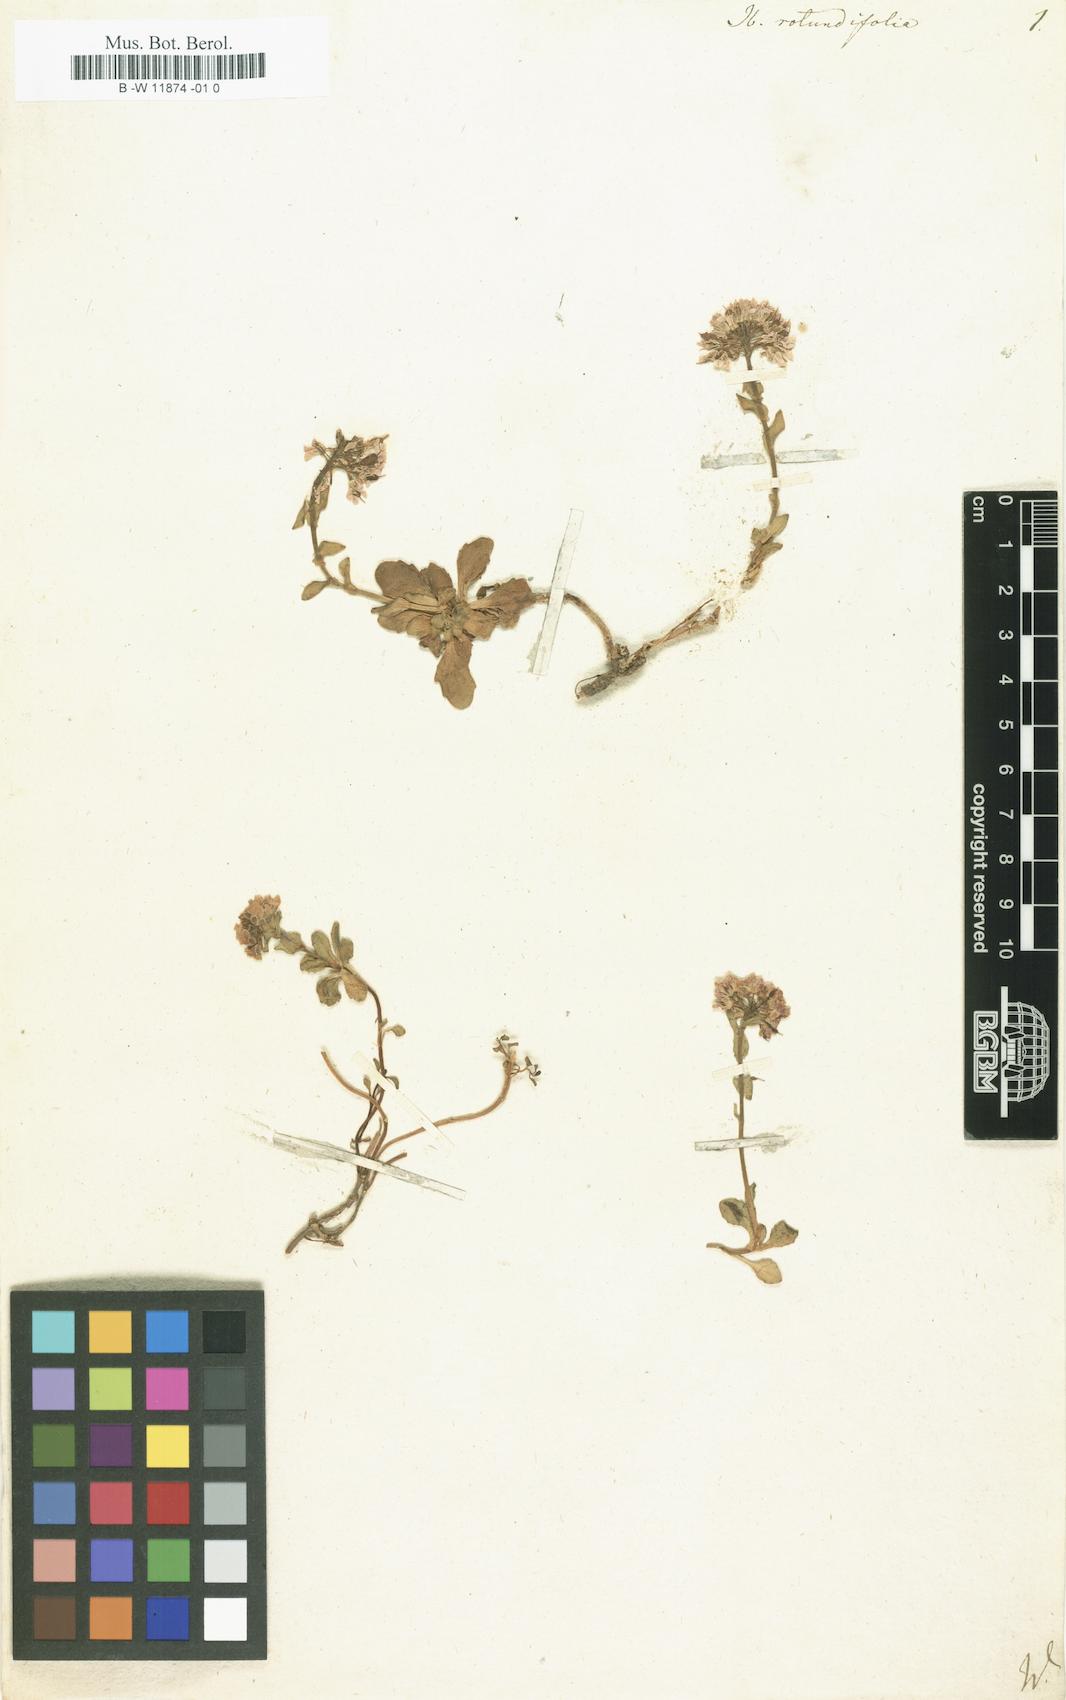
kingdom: Plantae
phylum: Tracheophyta
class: Magnoliopsida
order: Brassicales
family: Brassicaceae
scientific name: Brassicaceae
